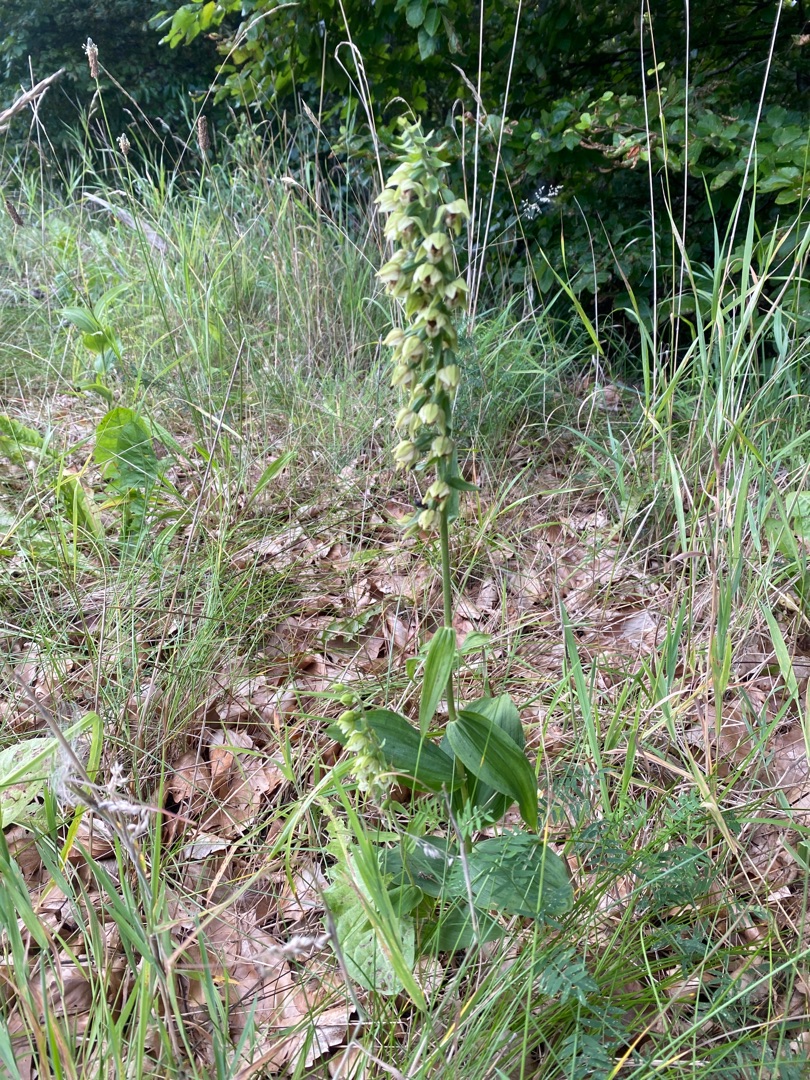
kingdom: Plantae
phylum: Tracheophyta
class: Liliopsida
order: Asparagales
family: Orchidaceae
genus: Epipactis
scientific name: Epipactis helleborine
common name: Skov-hullæbe (underart)
